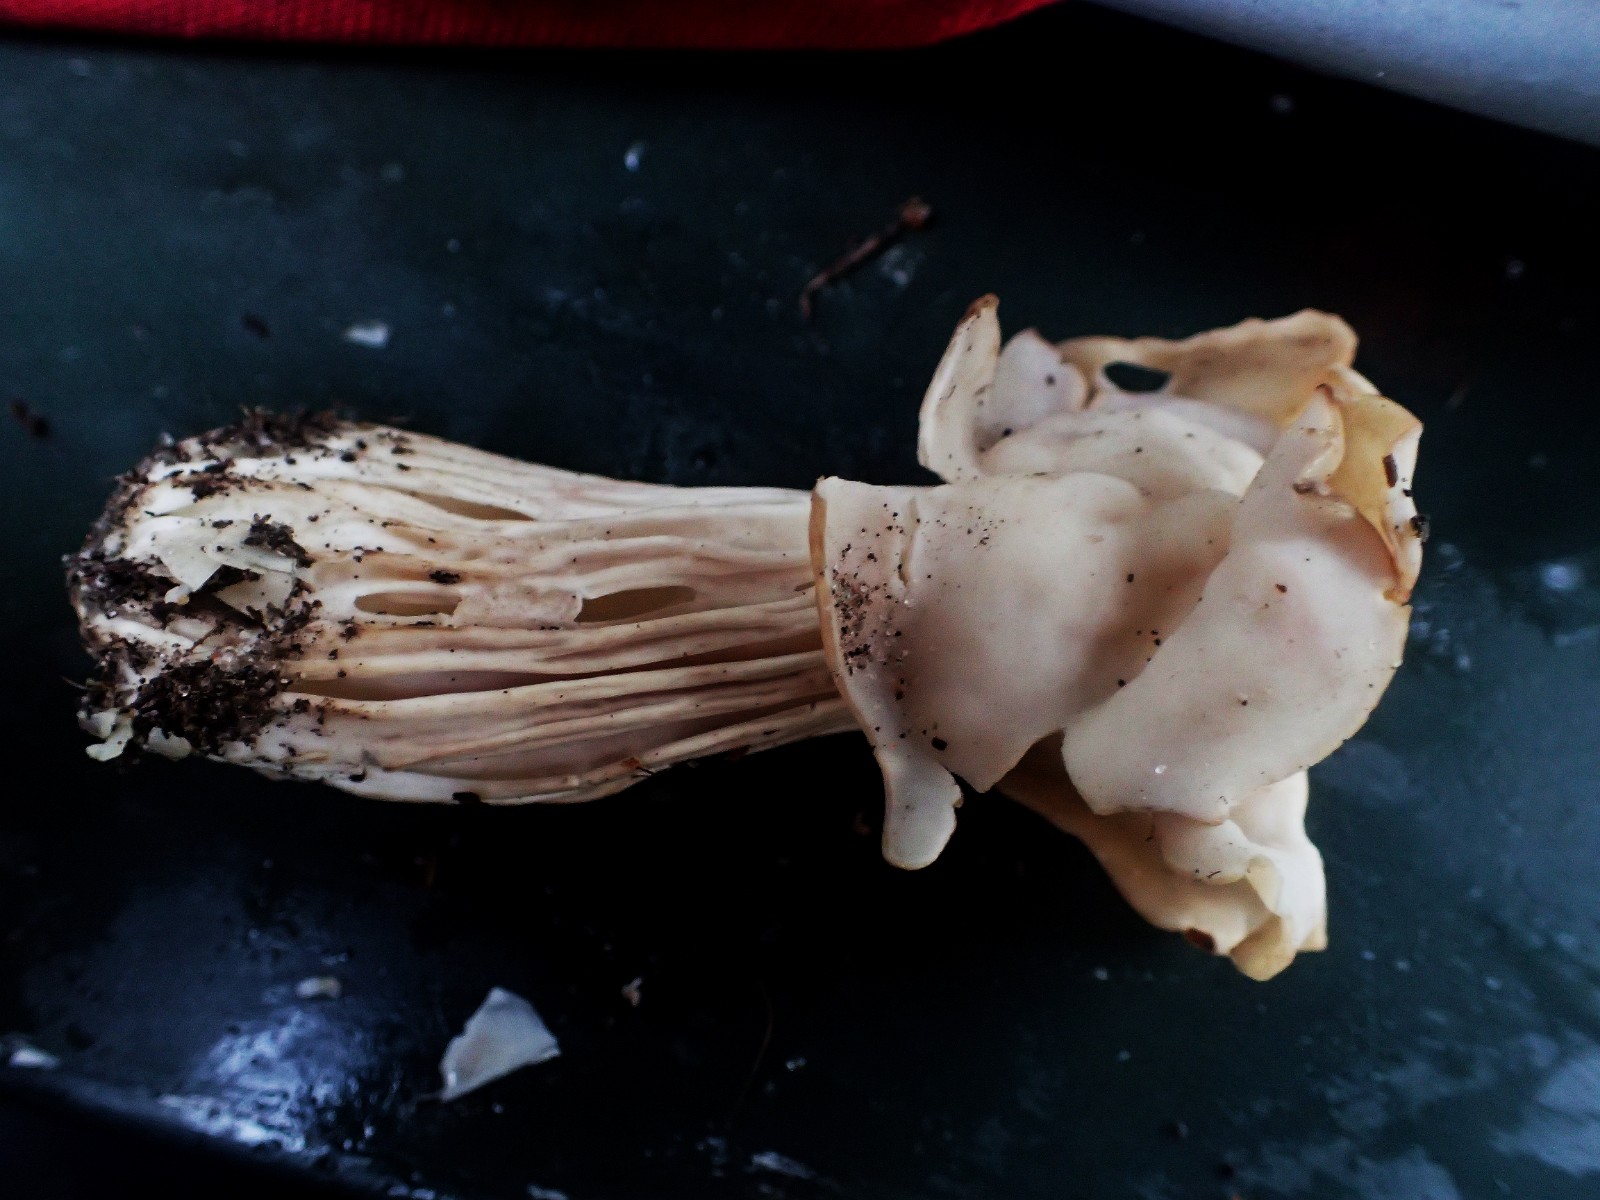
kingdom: Fungi
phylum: Ascomycota
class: Pezizomycetes
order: Pezizales
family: Helvellaceae
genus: Helvella
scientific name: Helvella crispa
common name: kruset foldhat
